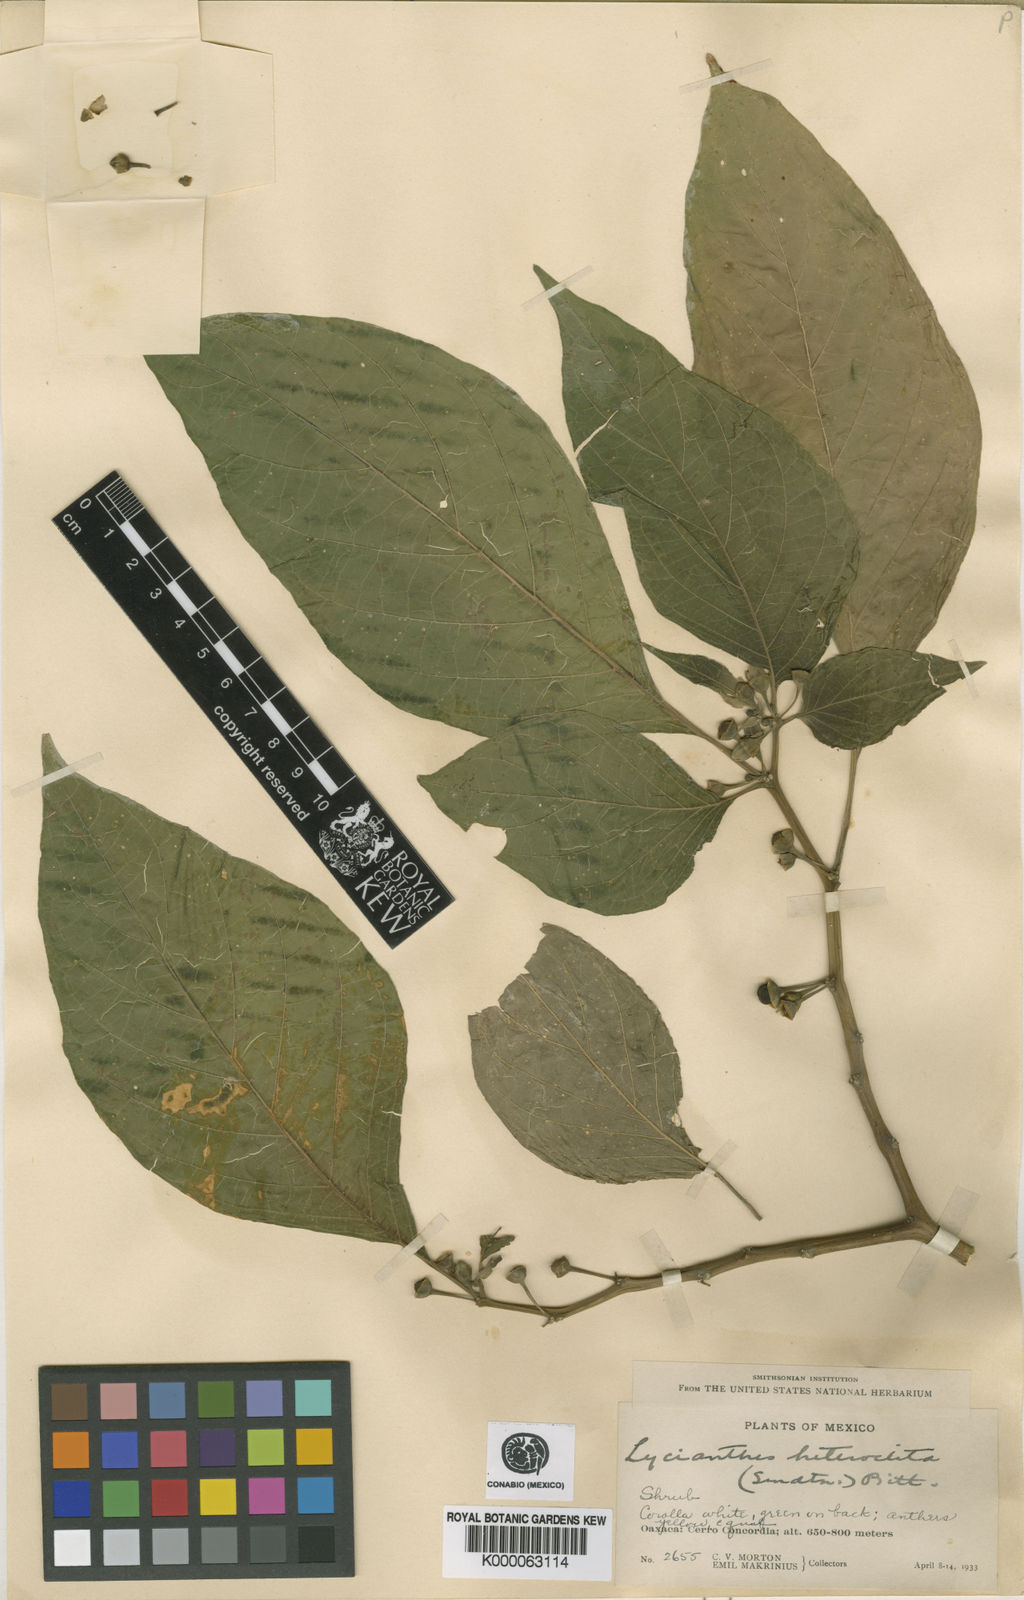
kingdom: Plantae
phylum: Tracheophyta
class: Magnoliopsida
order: Solanales
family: Solanaceae
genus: Lycianthes
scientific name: Lycianthes heteroclita
